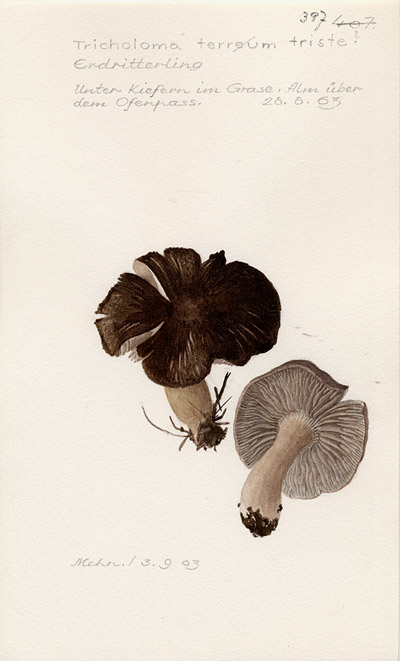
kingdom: Fungi
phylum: Basidiomycota
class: Agaricomycetes
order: Agaricales
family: Tricholomataceae
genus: Tricholoma
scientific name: Tricholoma triste
